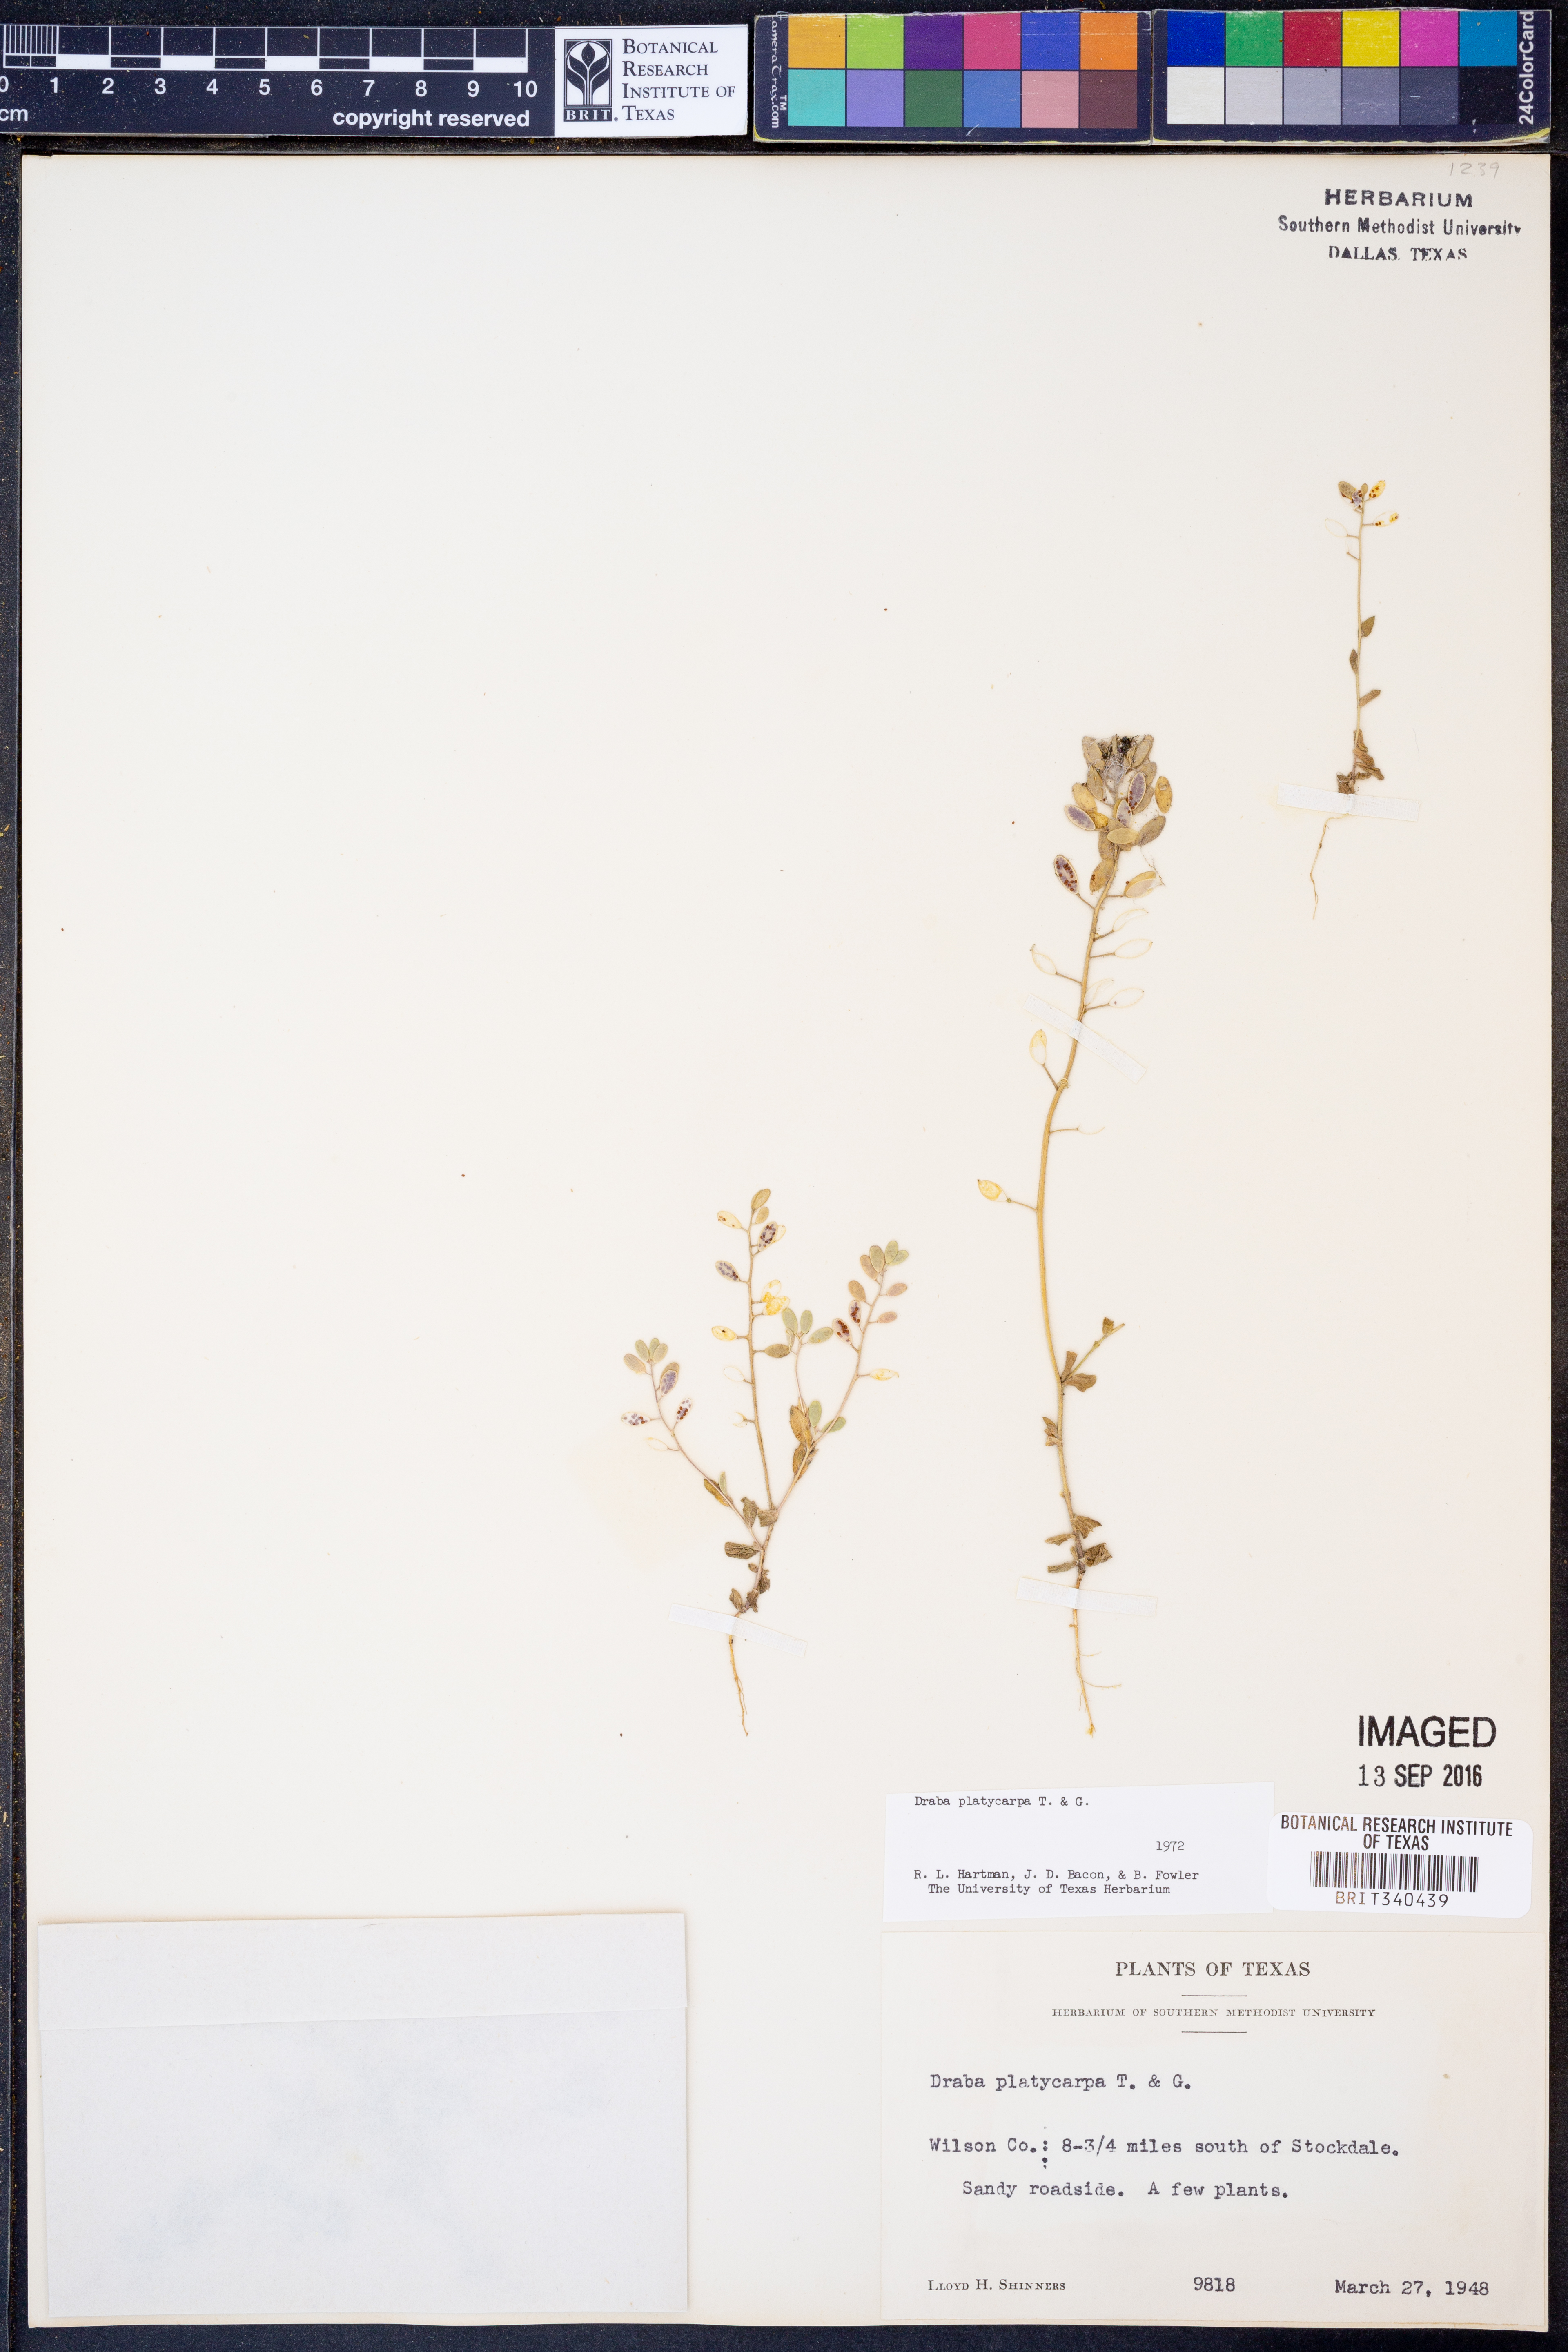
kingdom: Plantae
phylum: Tracheophyta
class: Magnoliopsida
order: Brassicales
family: Brassicaceae
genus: Tomostima
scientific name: Tomostima platycarpa
